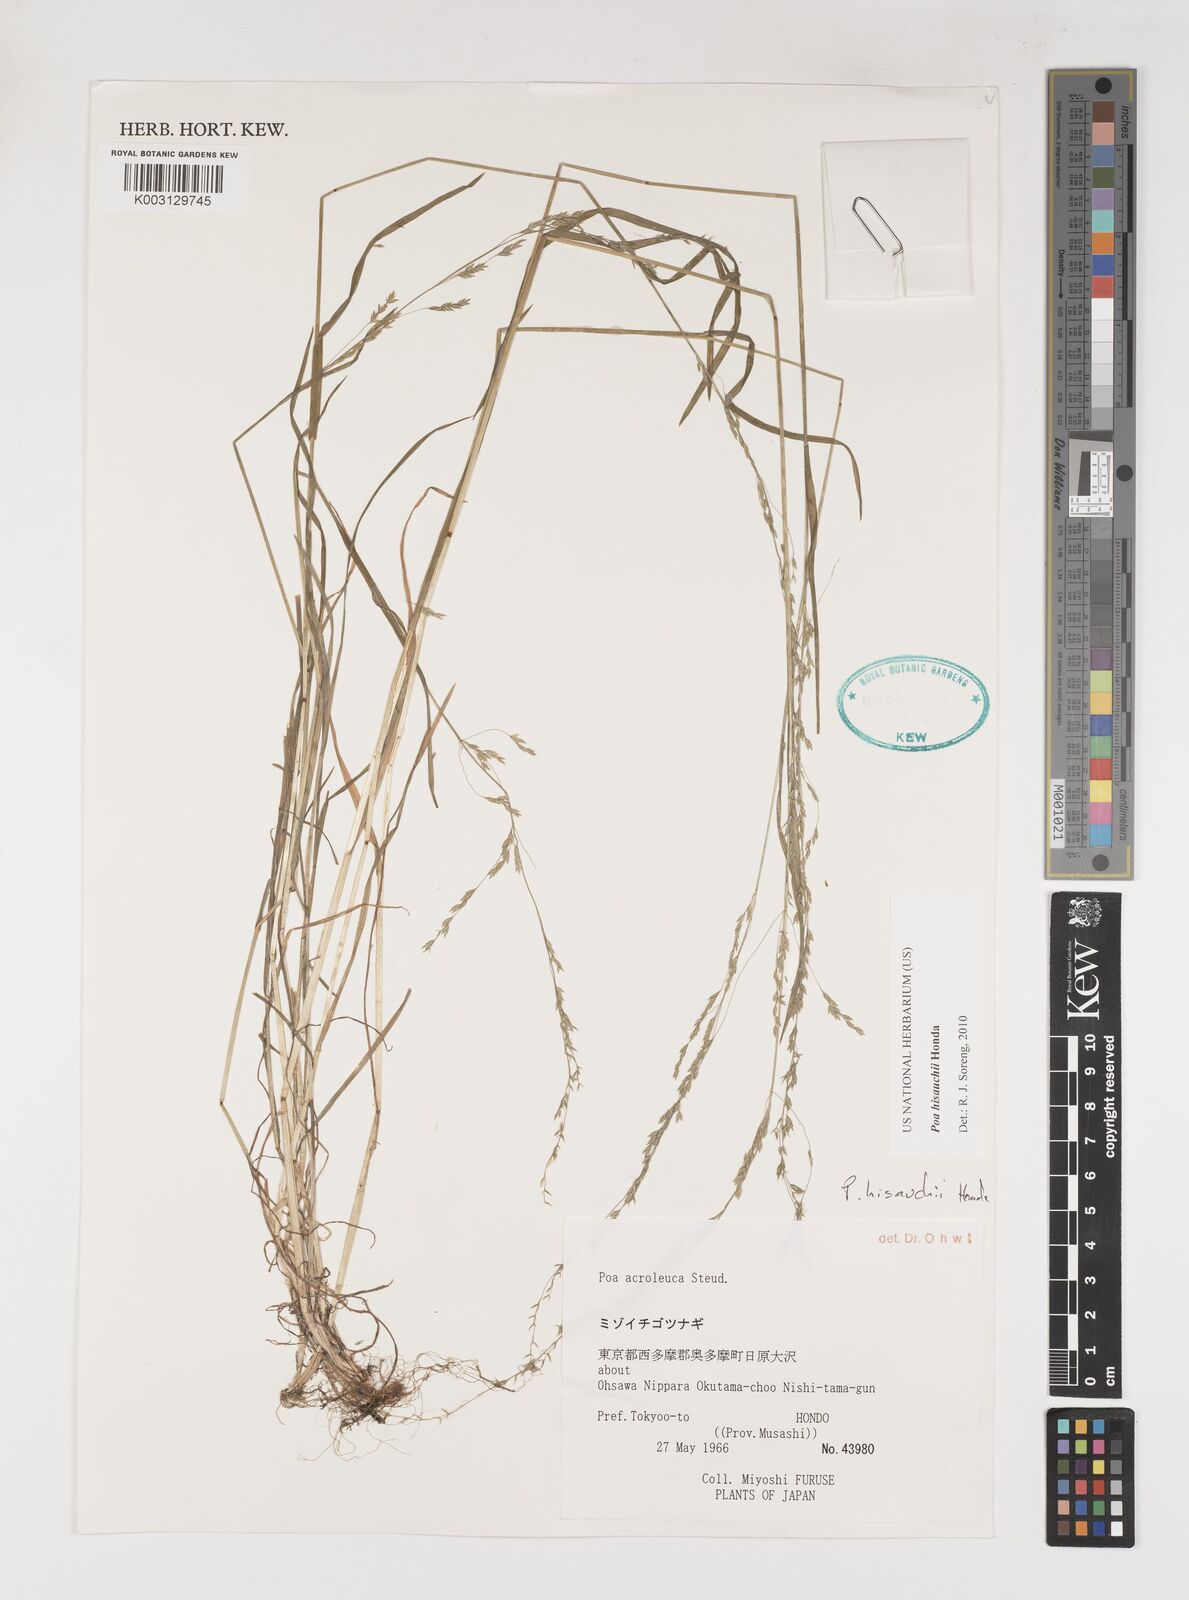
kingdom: Plantae
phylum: Tracheophyta
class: Liliopsida
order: Poales
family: Poaceae
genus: Poa
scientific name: Poa hisauchii
